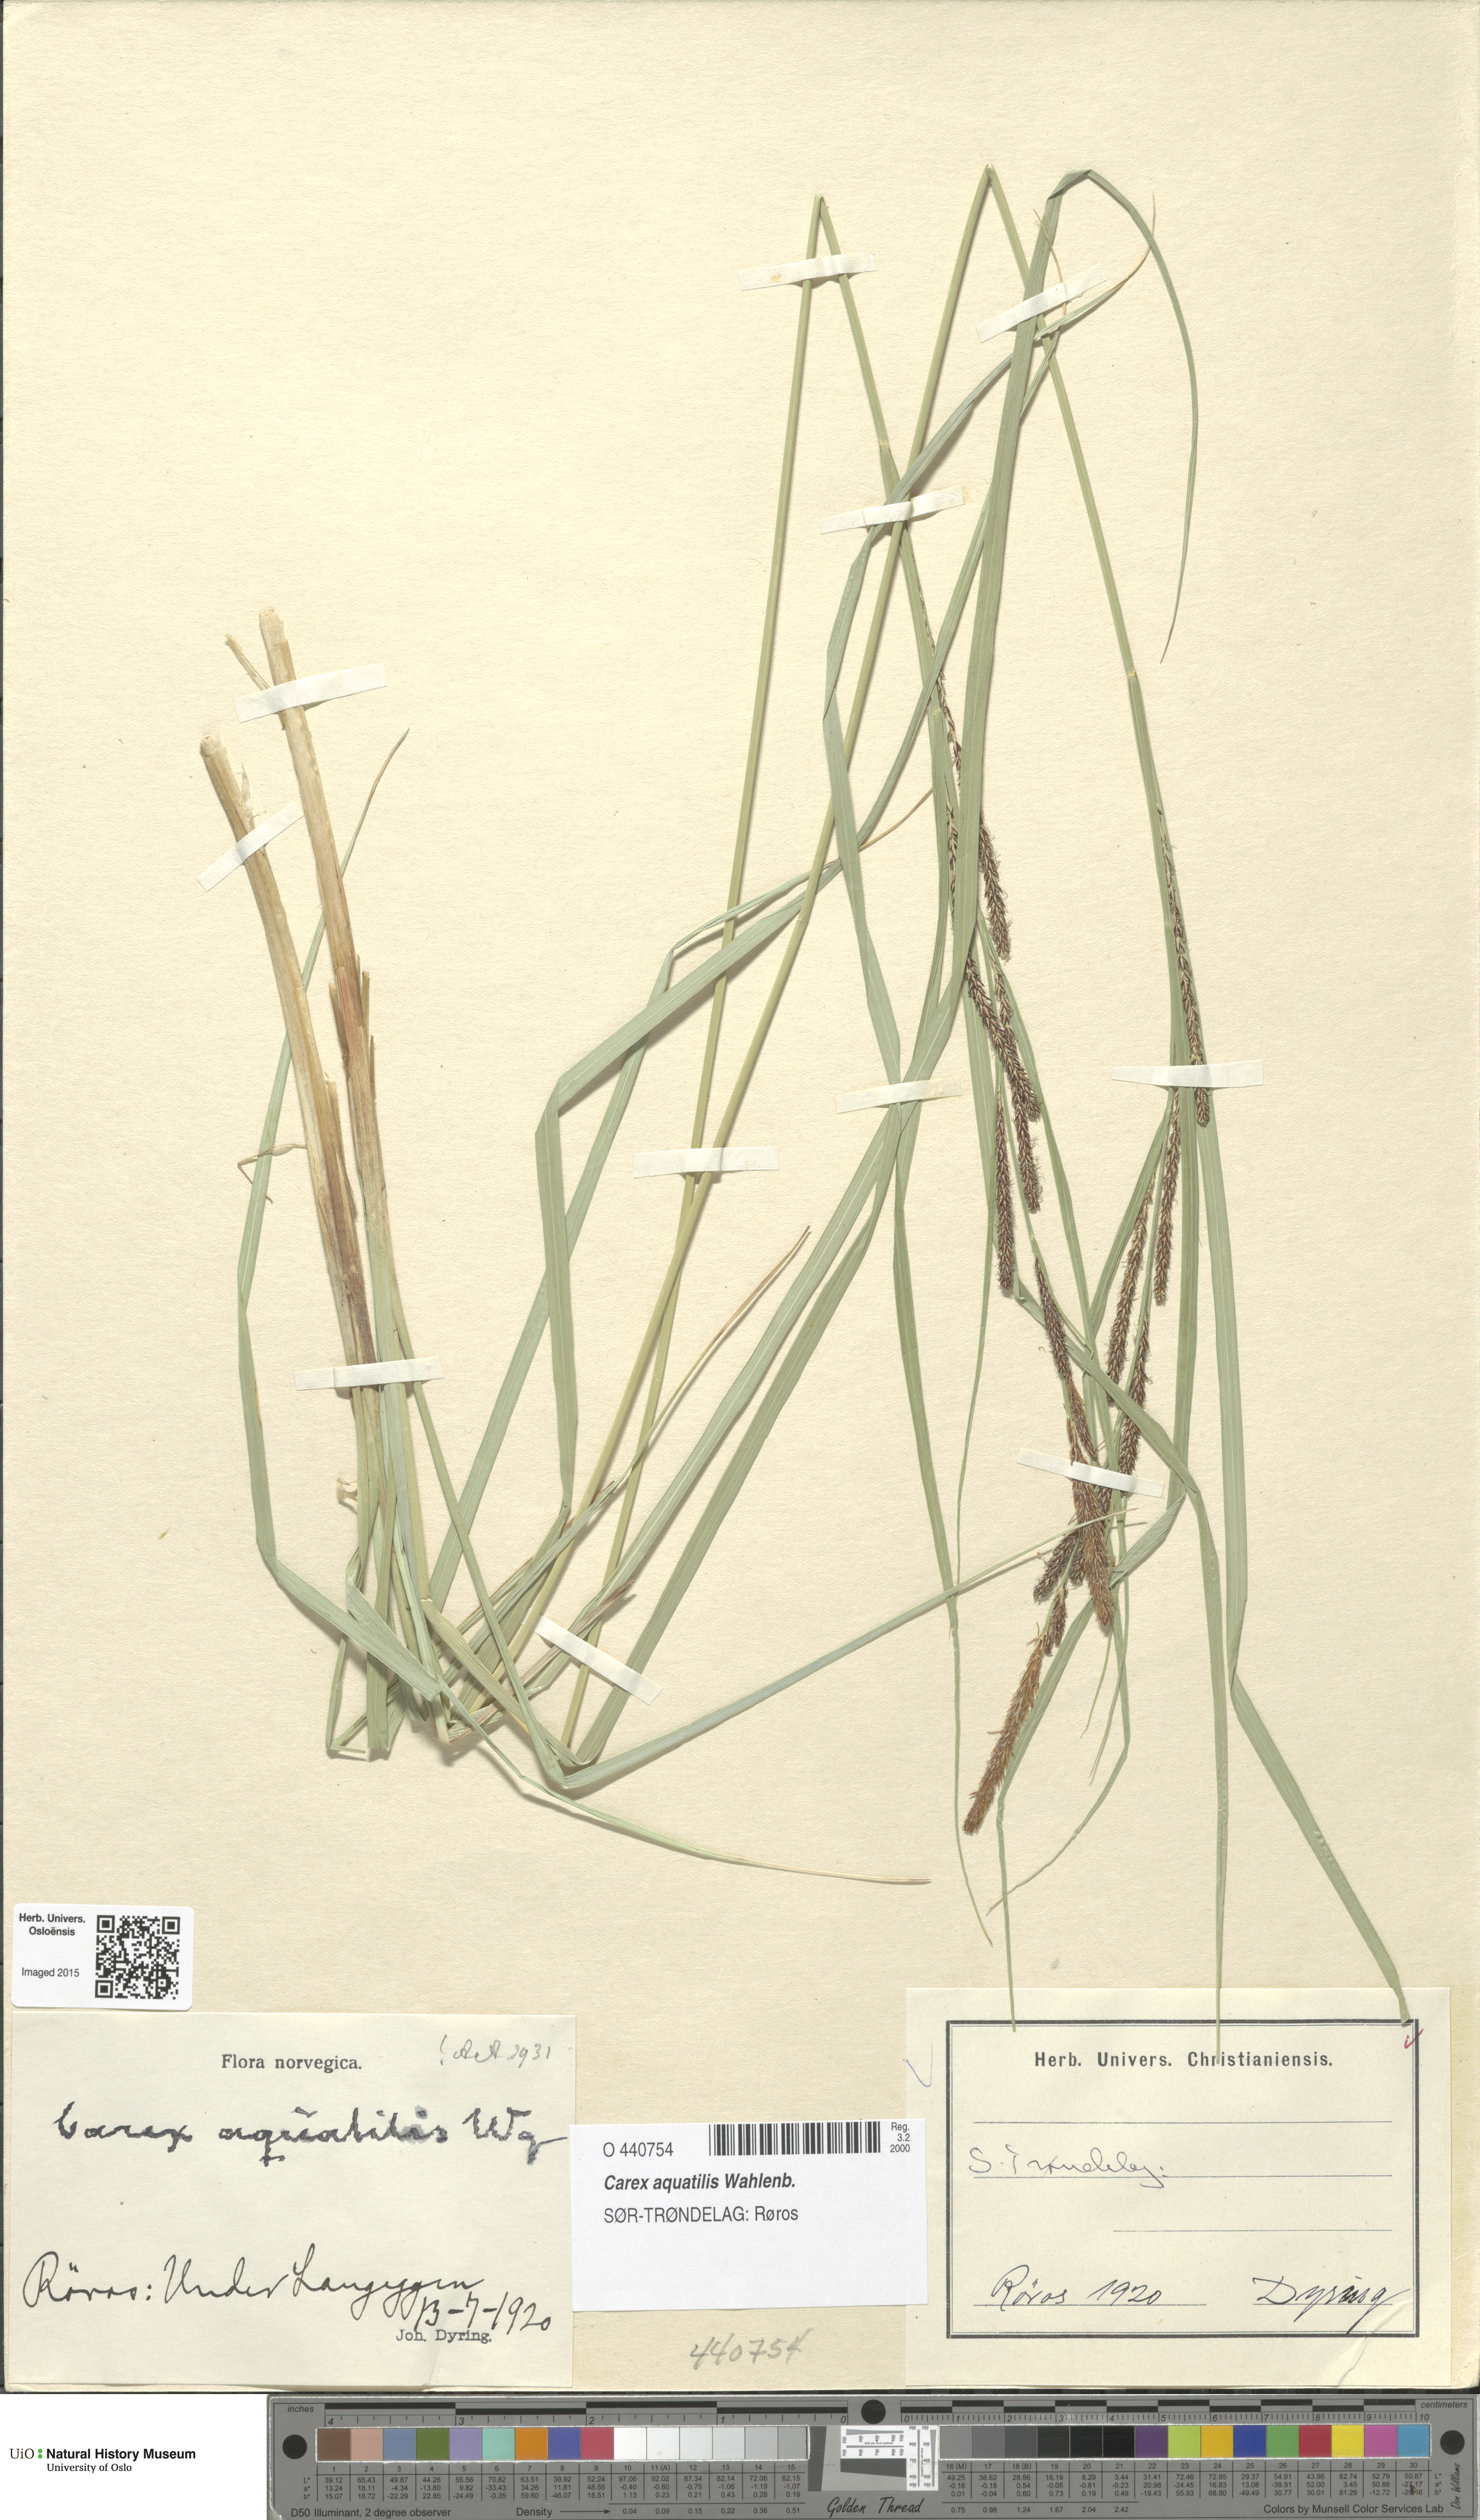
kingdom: Plantae
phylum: Tracheophyta
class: Liliopsida
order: Poales
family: Cyperaceae
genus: Carex
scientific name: Carex aquatilis
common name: Water sedge
